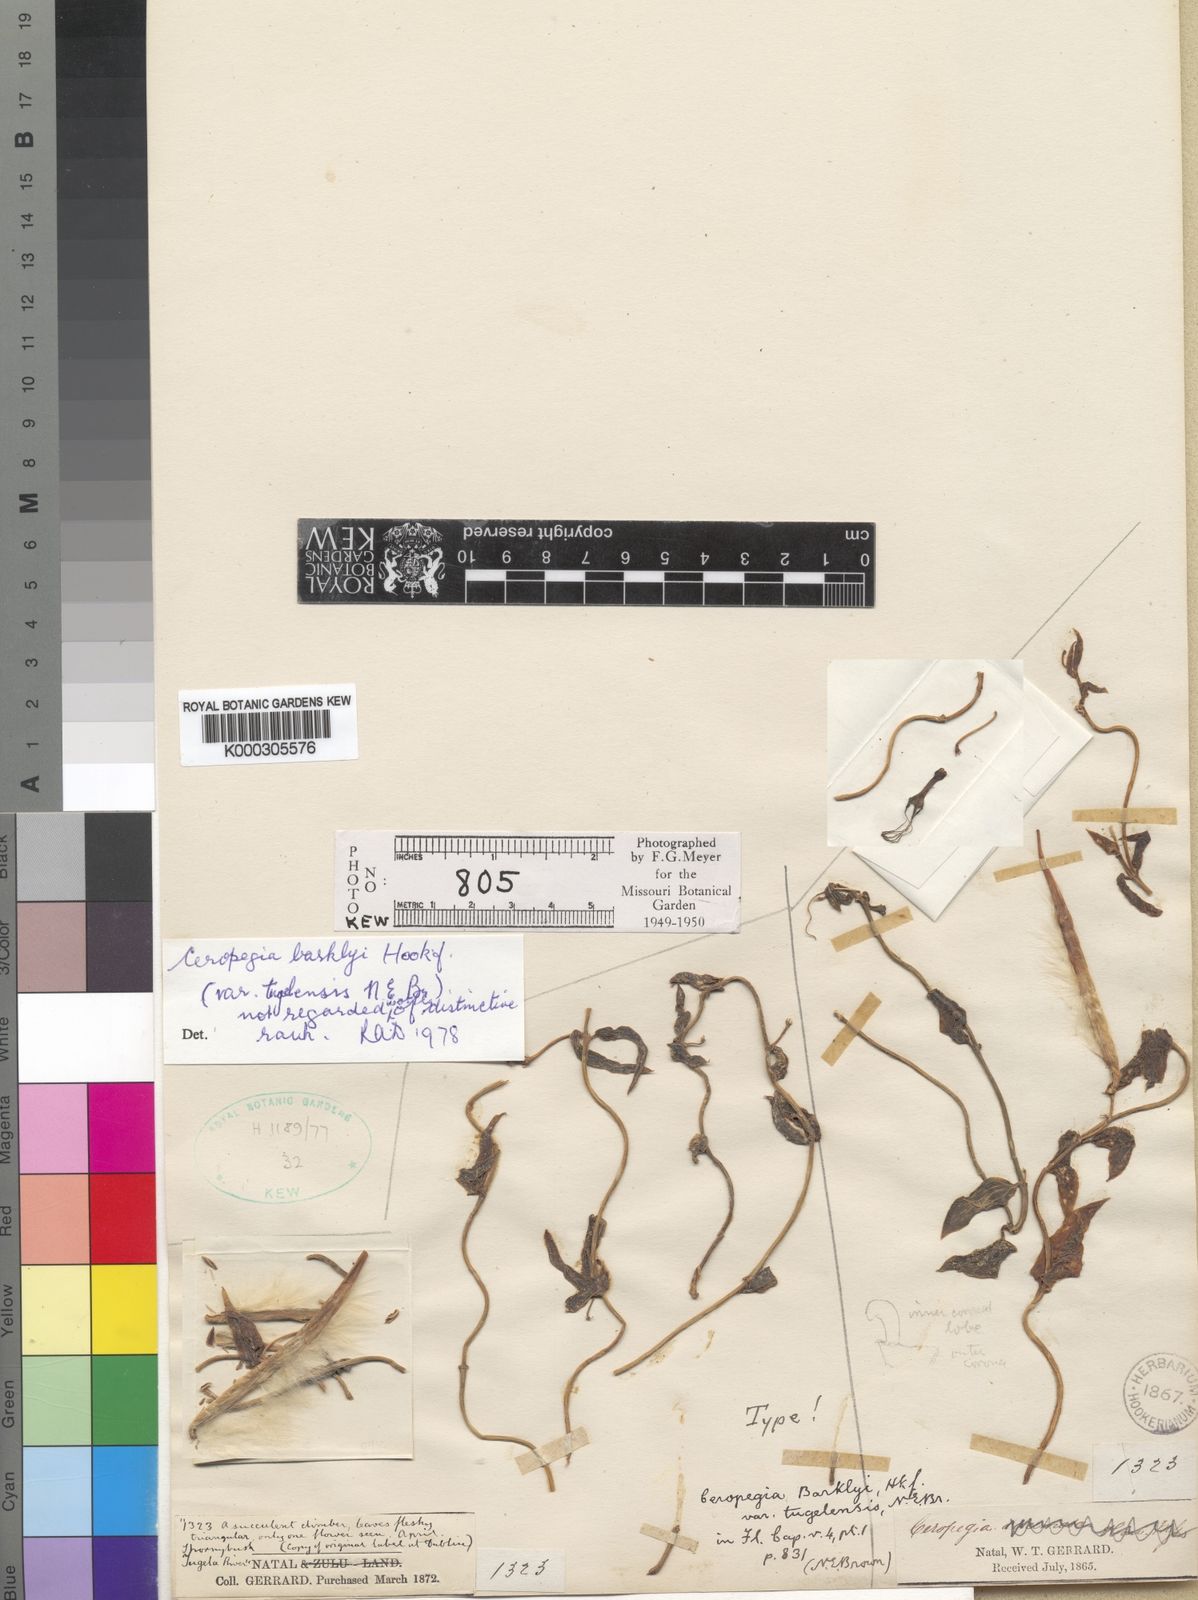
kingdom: Plantae
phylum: Tracheophyta
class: Magnoliopsida
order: Gentianales
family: Apocynaceae
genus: Ceropegia
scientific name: Ceropegia africana
